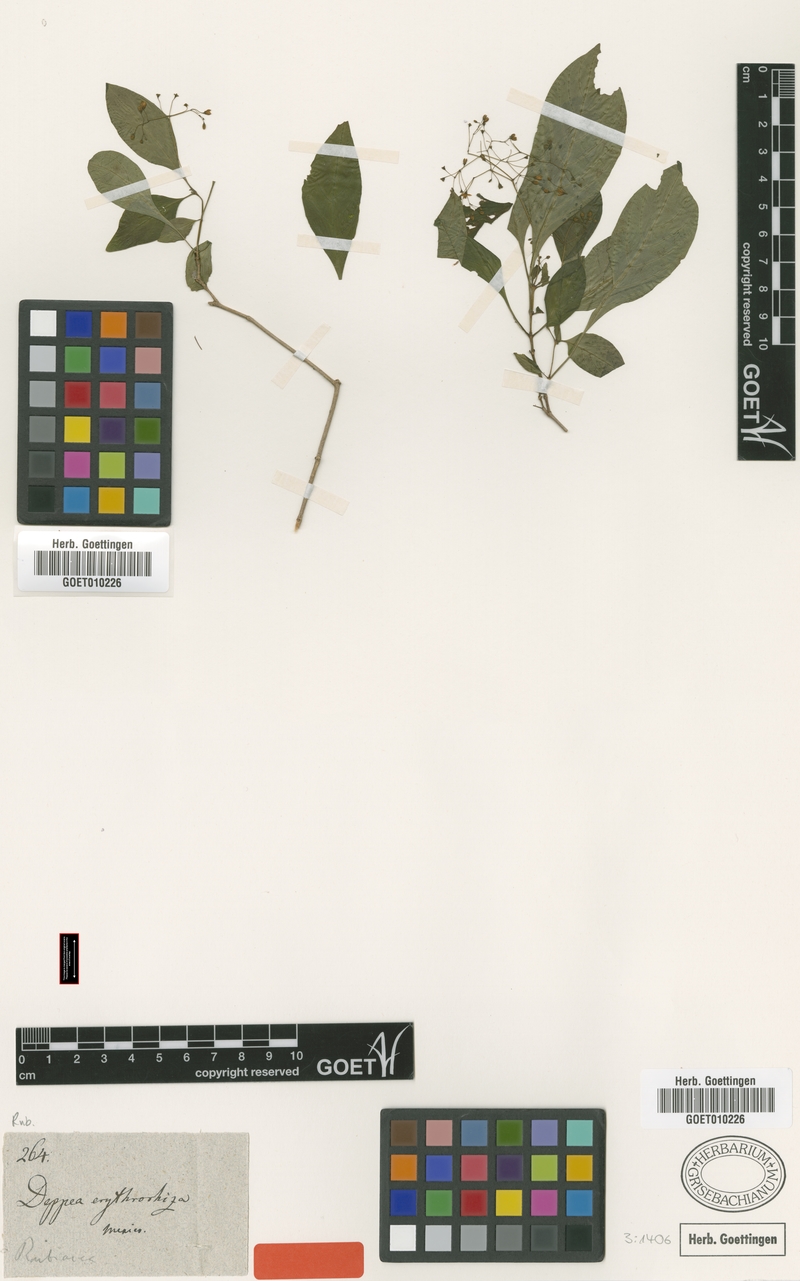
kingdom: Plantae
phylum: Tracheophyta
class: Magnoliopsida
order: Gentianales
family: Rubiaceae
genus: Deppea
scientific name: Deppea erythrorhiza
